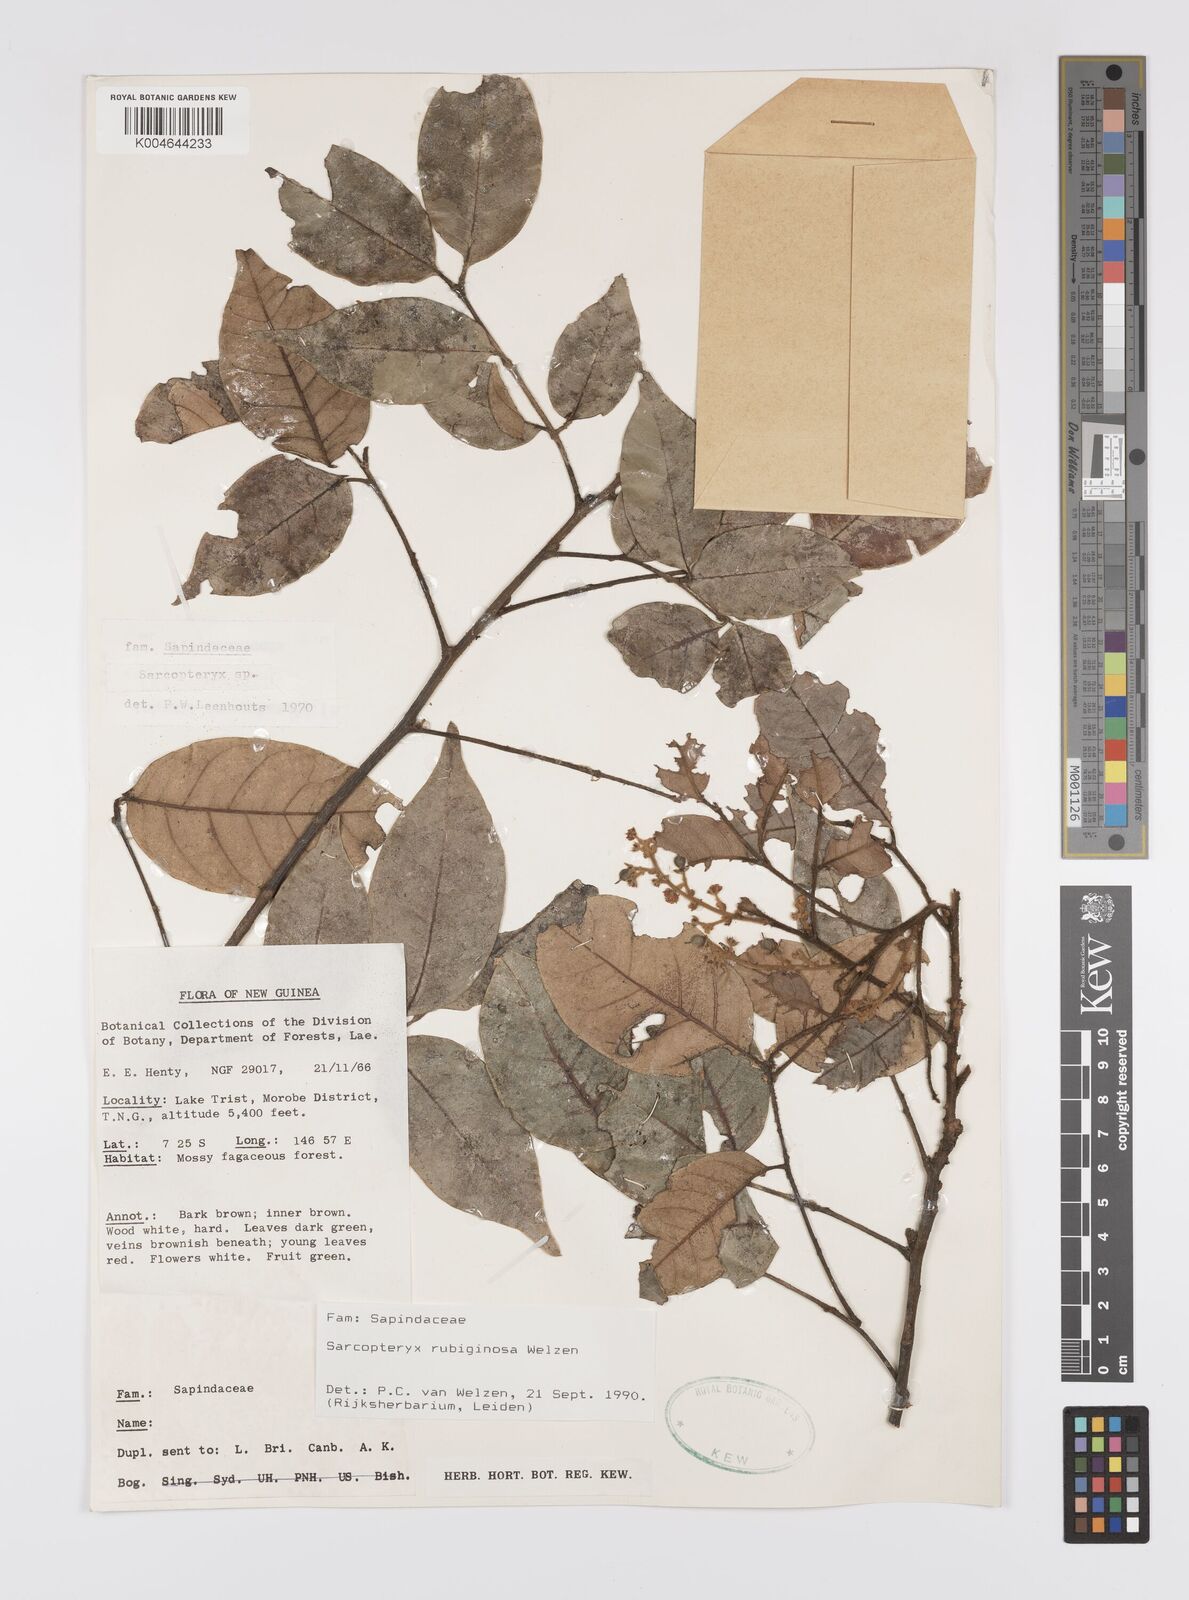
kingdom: Plantae
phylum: Tracheophyta
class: Magnoliopsida
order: Sapindales
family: Sapindaceae
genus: Sarcopteryx
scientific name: Sarcopteryx rubiginosa
